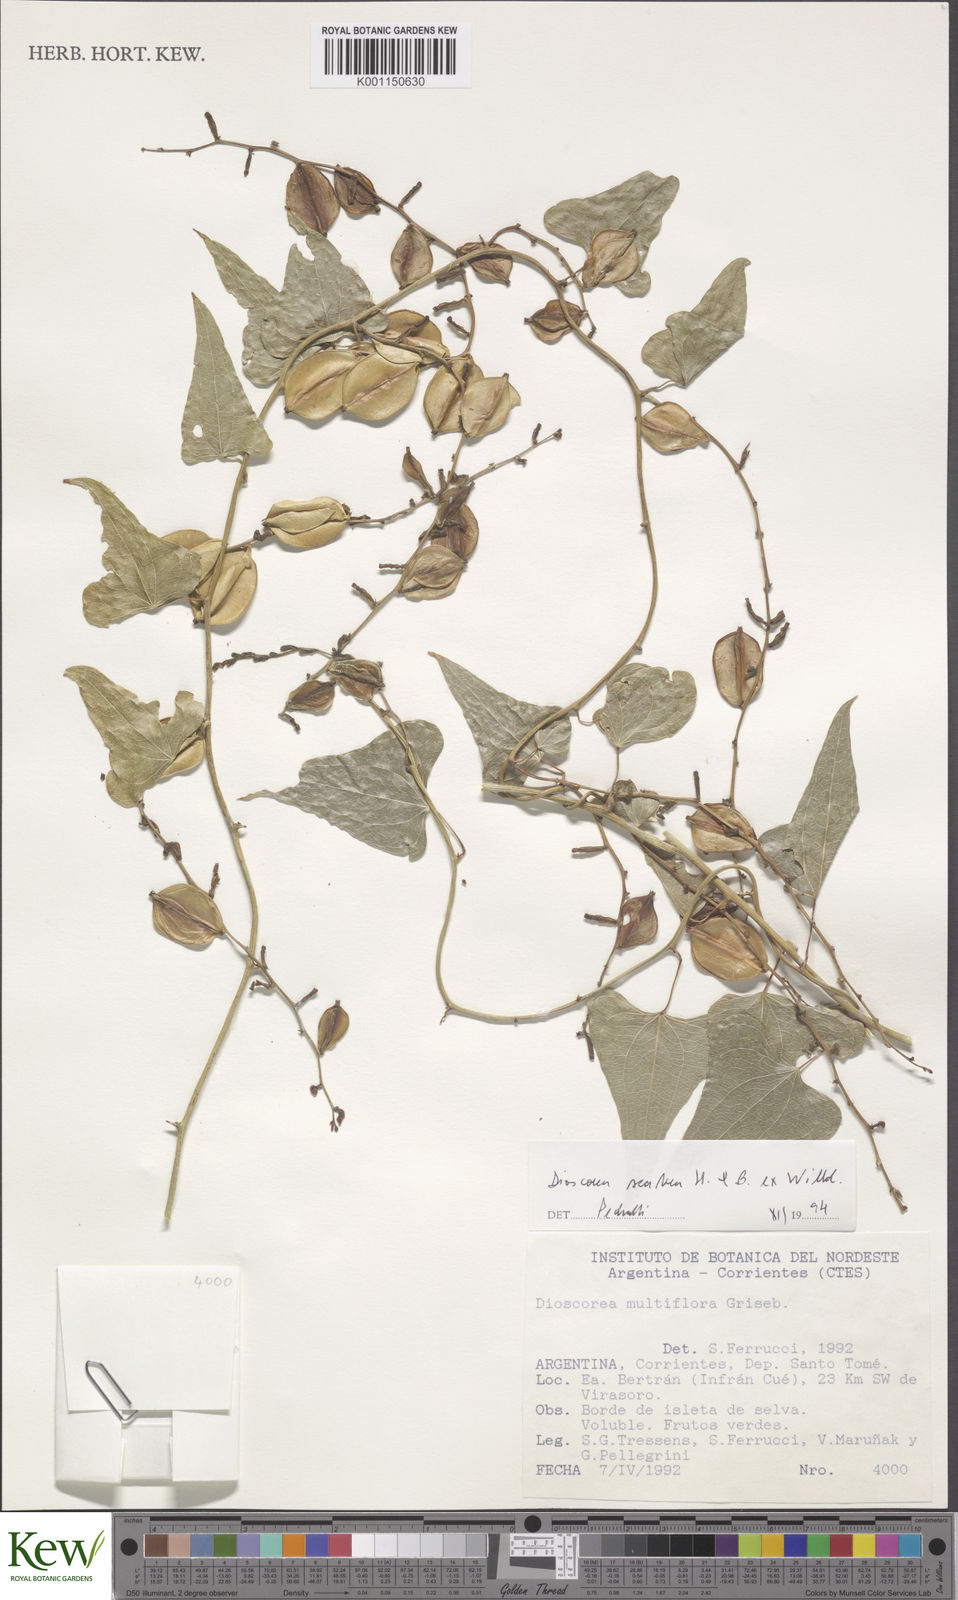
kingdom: Plantae
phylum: Tracheophyta
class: Liliopsida
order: Dioscoreales
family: Dioscoreaceae
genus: Dioscorea
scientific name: Dioscorea scabra
